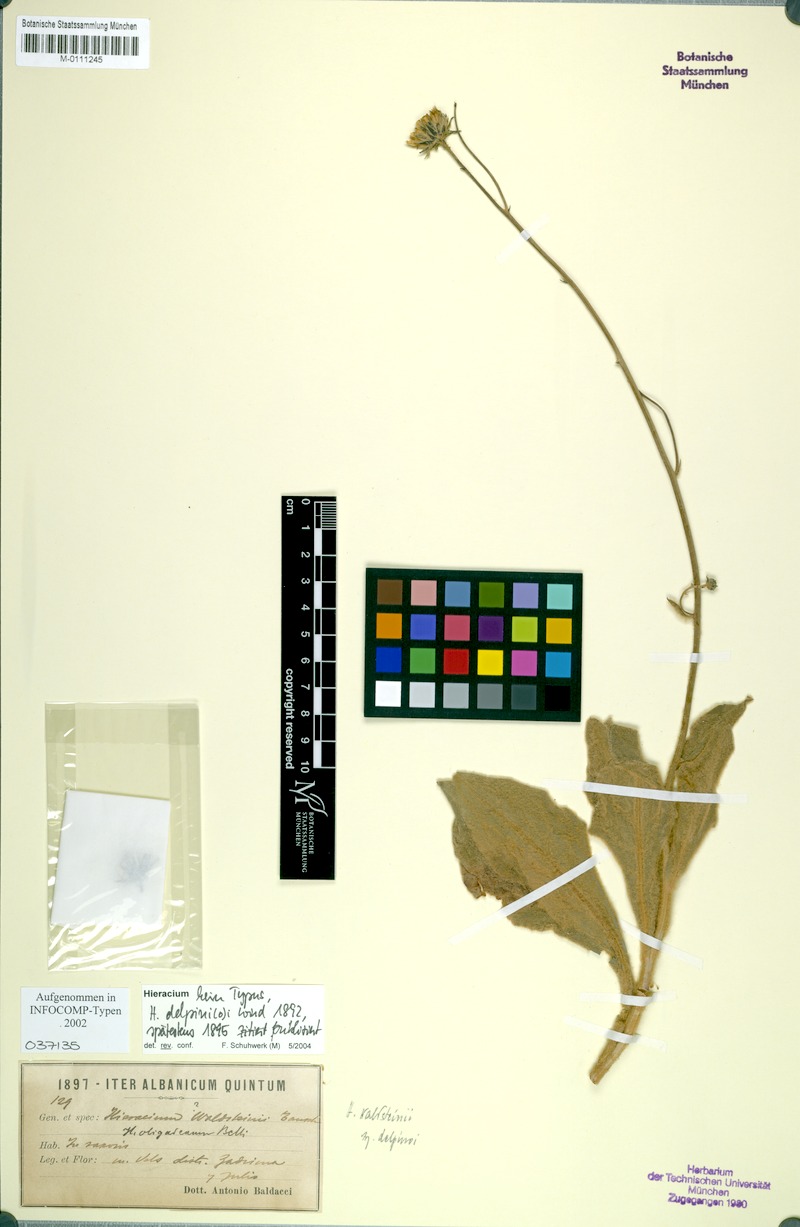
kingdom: Plantae
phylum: Tracheophyta
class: Magnoliopsida
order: Asterales
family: Asteraceae
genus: Hieracium
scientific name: Hieracium waldsteinii
